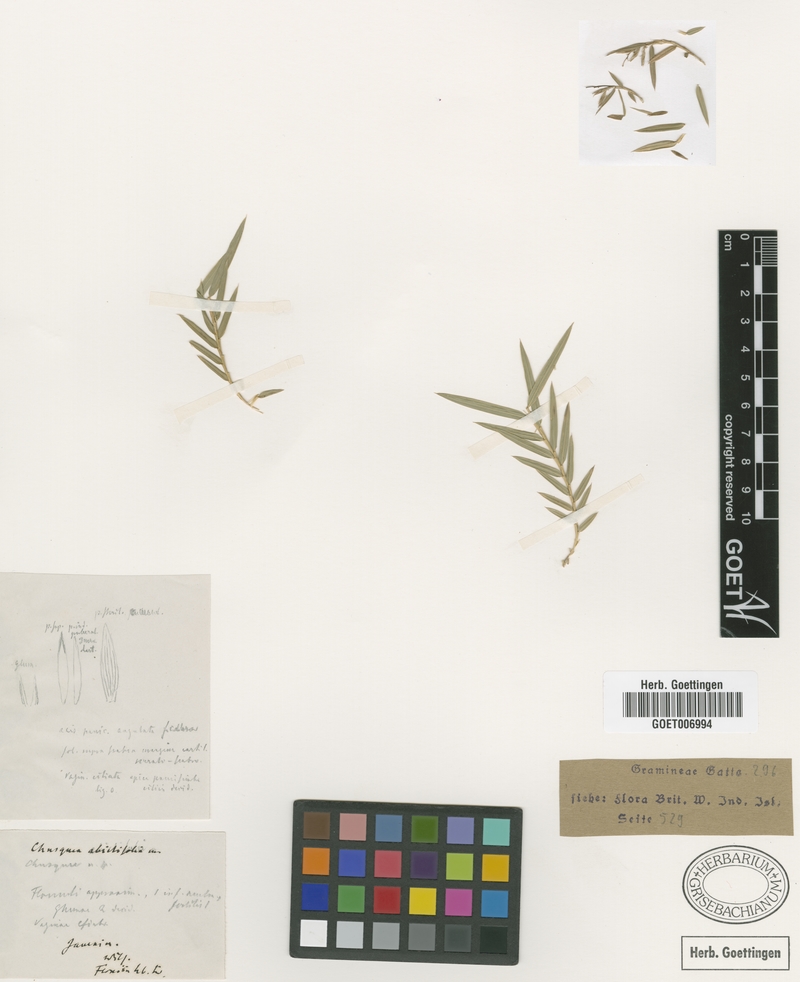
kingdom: Plantae
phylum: Tracheophyta
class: Liliopsida
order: Poales
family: Poaceae
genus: Chusquea
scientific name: Chusquea abietifolia
